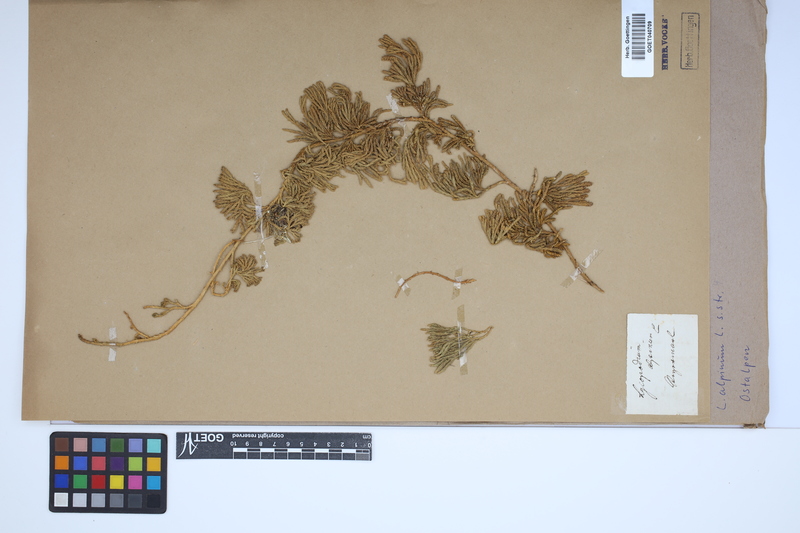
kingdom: Plantae
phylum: Tracheophyta
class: Lycopodiopsida
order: Lycopodiales
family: Lycopodiaceae
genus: Diphasiastrum
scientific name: Diphasiastrum alpinum
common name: Alpine clubmoss
